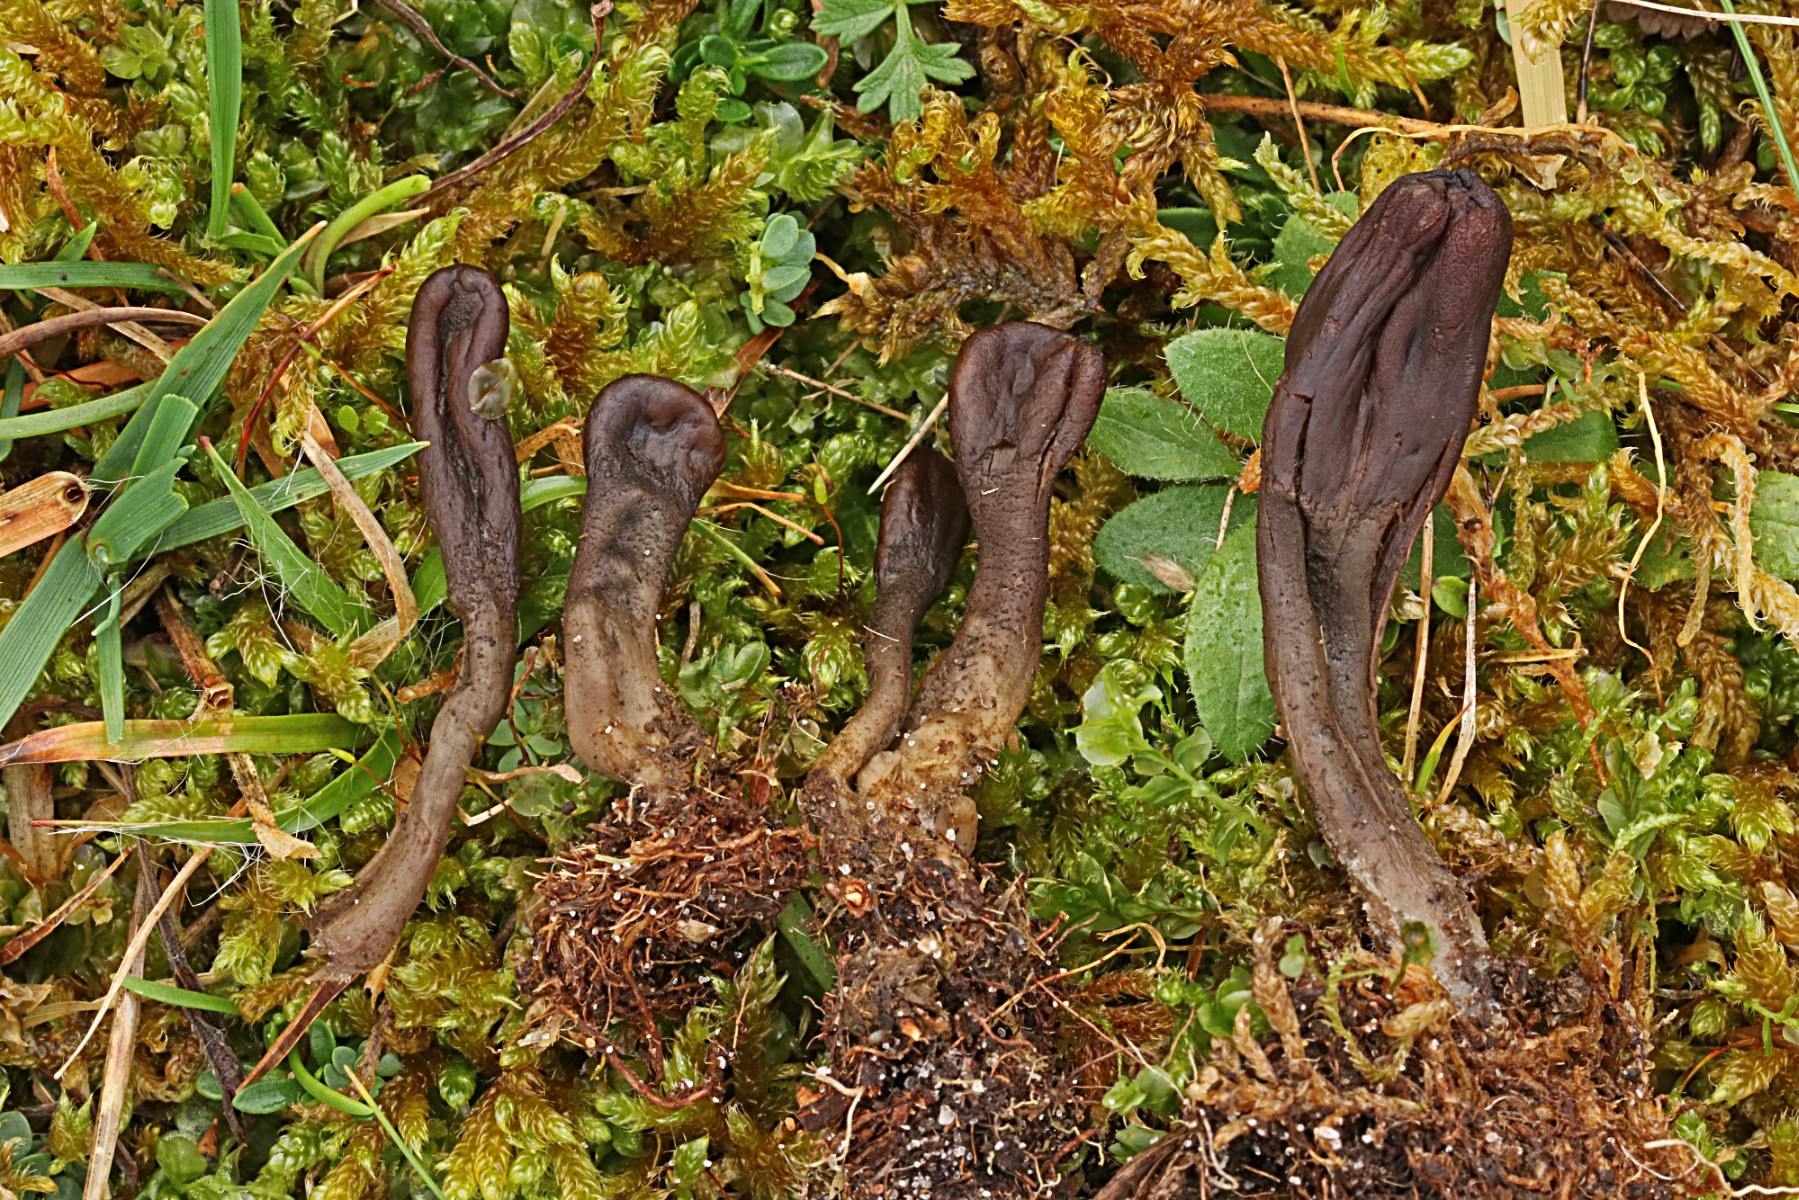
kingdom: Fungi
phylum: Ascomycota
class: Geoglossomycetes
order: Geoglossales
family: Geoglossaceae
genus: Geoglossum
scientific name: Geoglossum atropurpureum
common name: purpursort farvetunge
